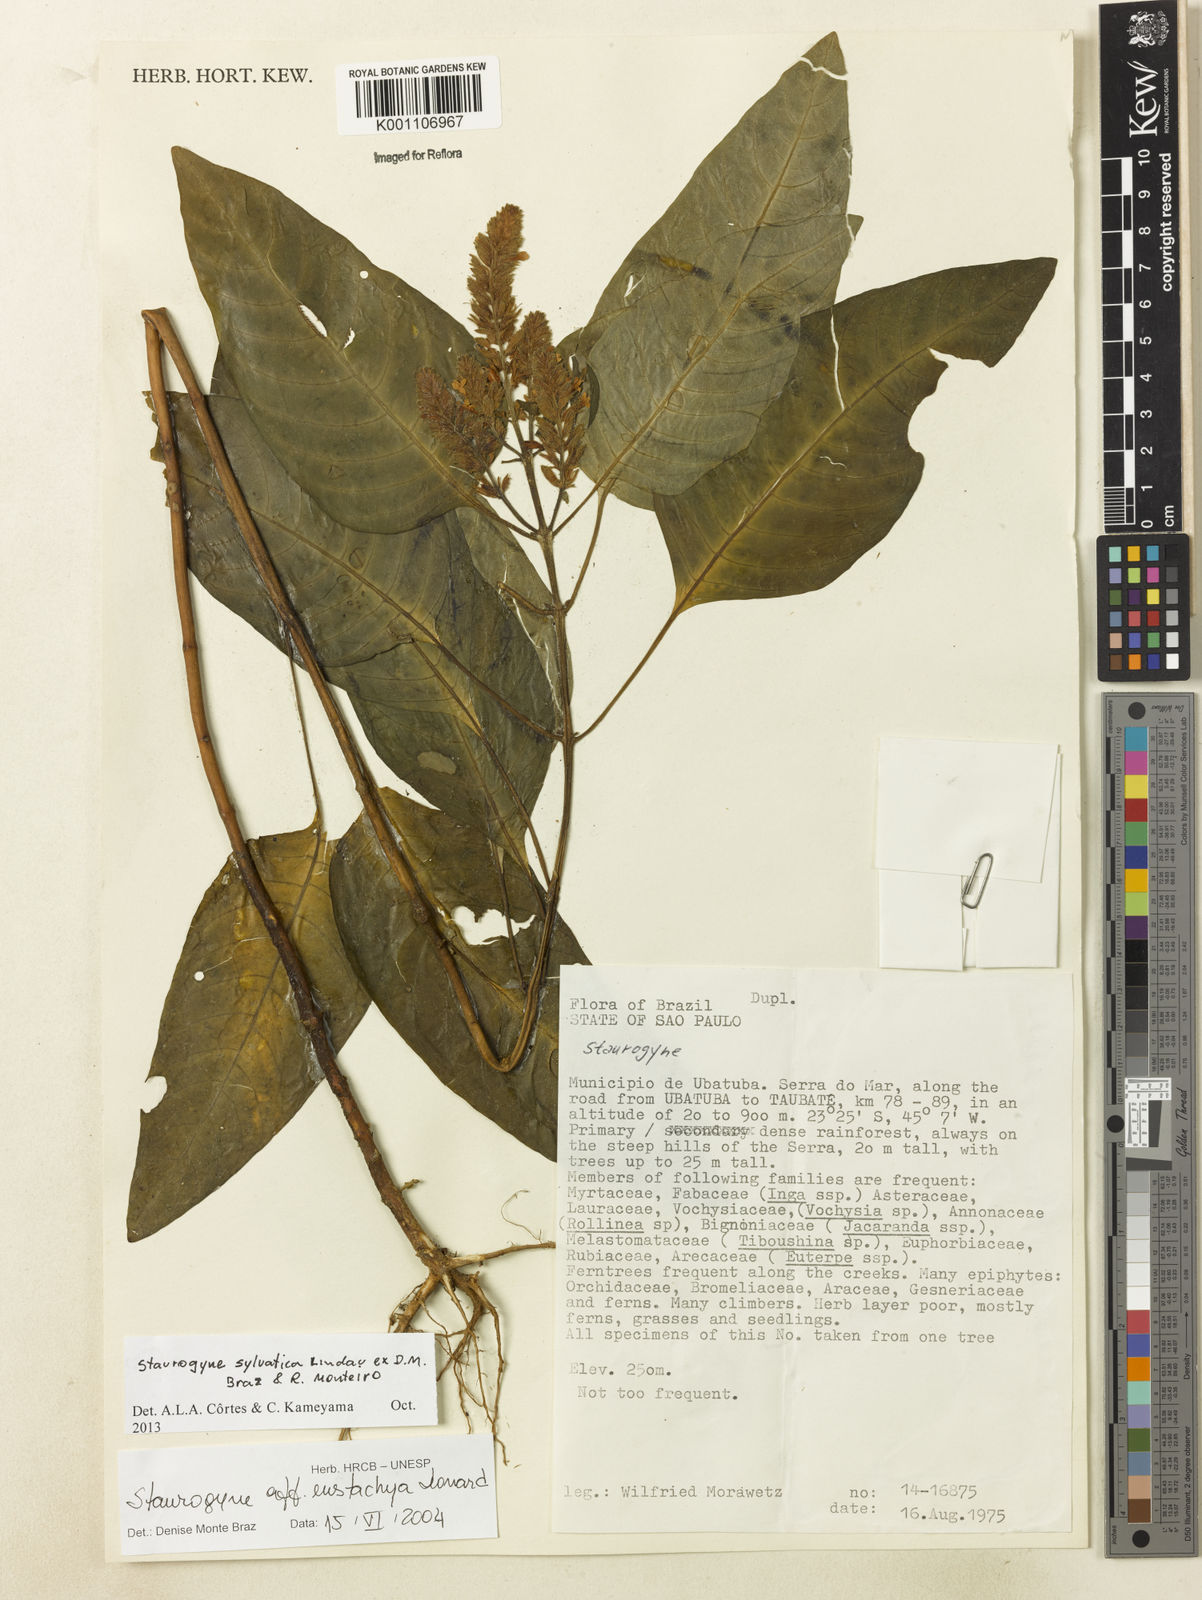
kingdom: Plantae
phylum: Tracheophyta
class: Magnoliopsida
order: Lamiales
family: Acanthaceae
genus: Staurogyne
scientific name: Staurogyne sylvatica
